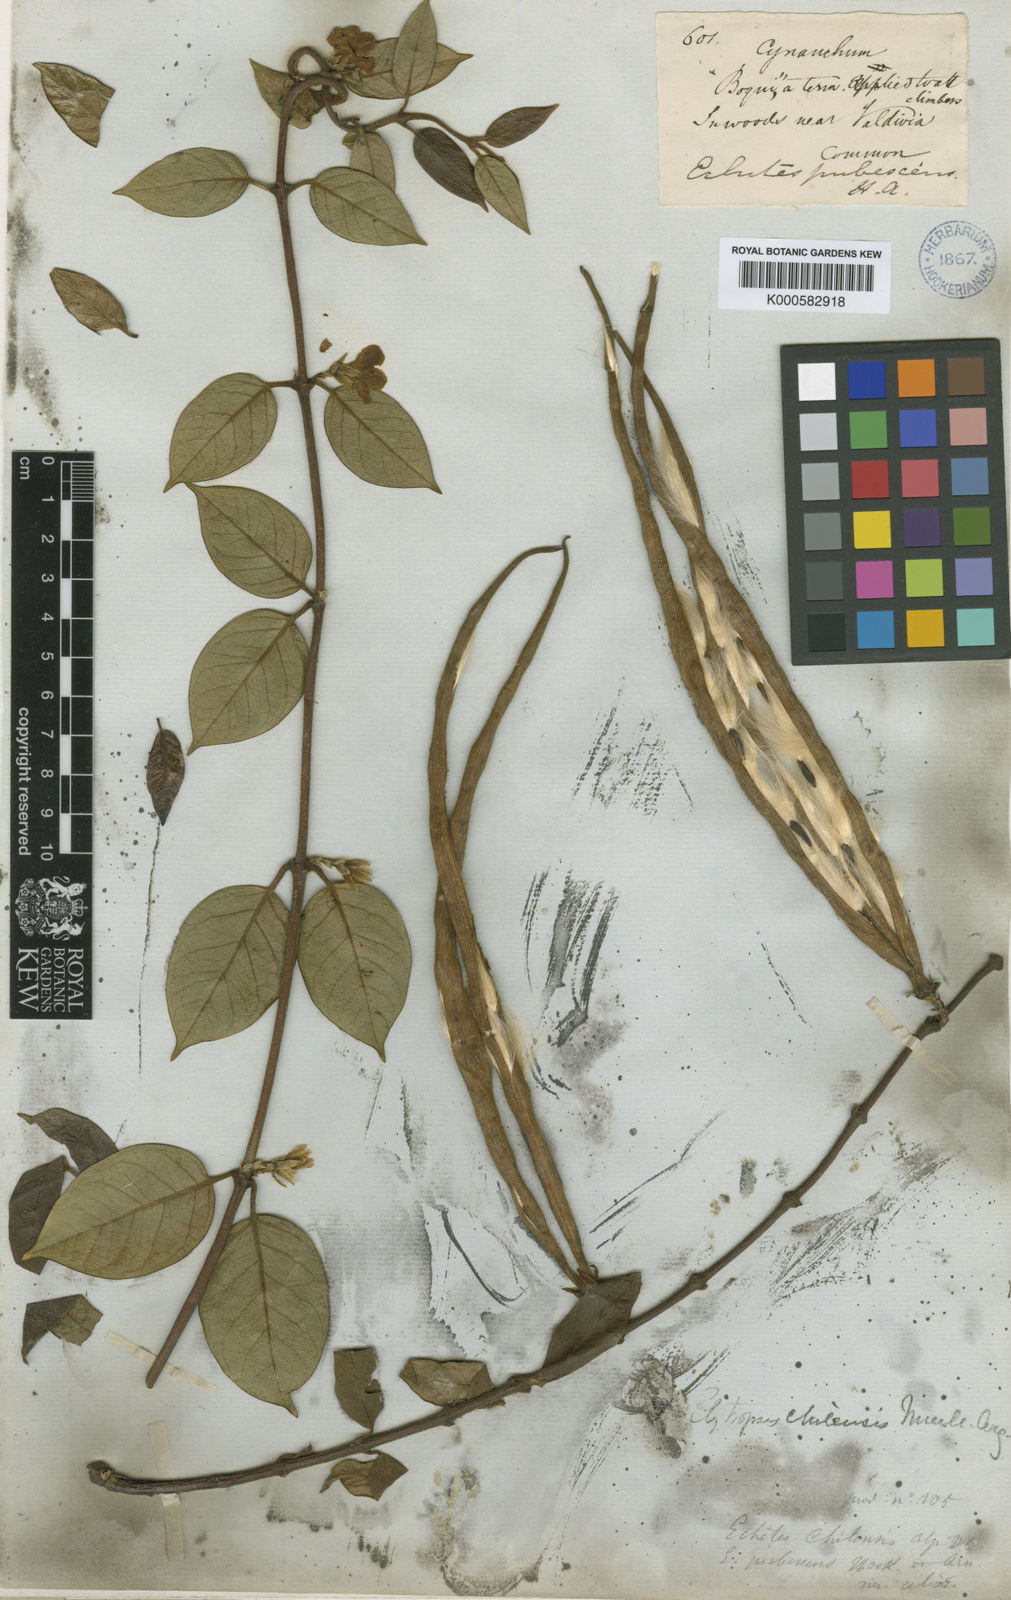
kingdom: Plantae
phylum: Tracheophyta
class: Magnoliopsida
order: Gentianales
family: Apocynaceae
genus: Elytropus
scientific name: Elytropus
